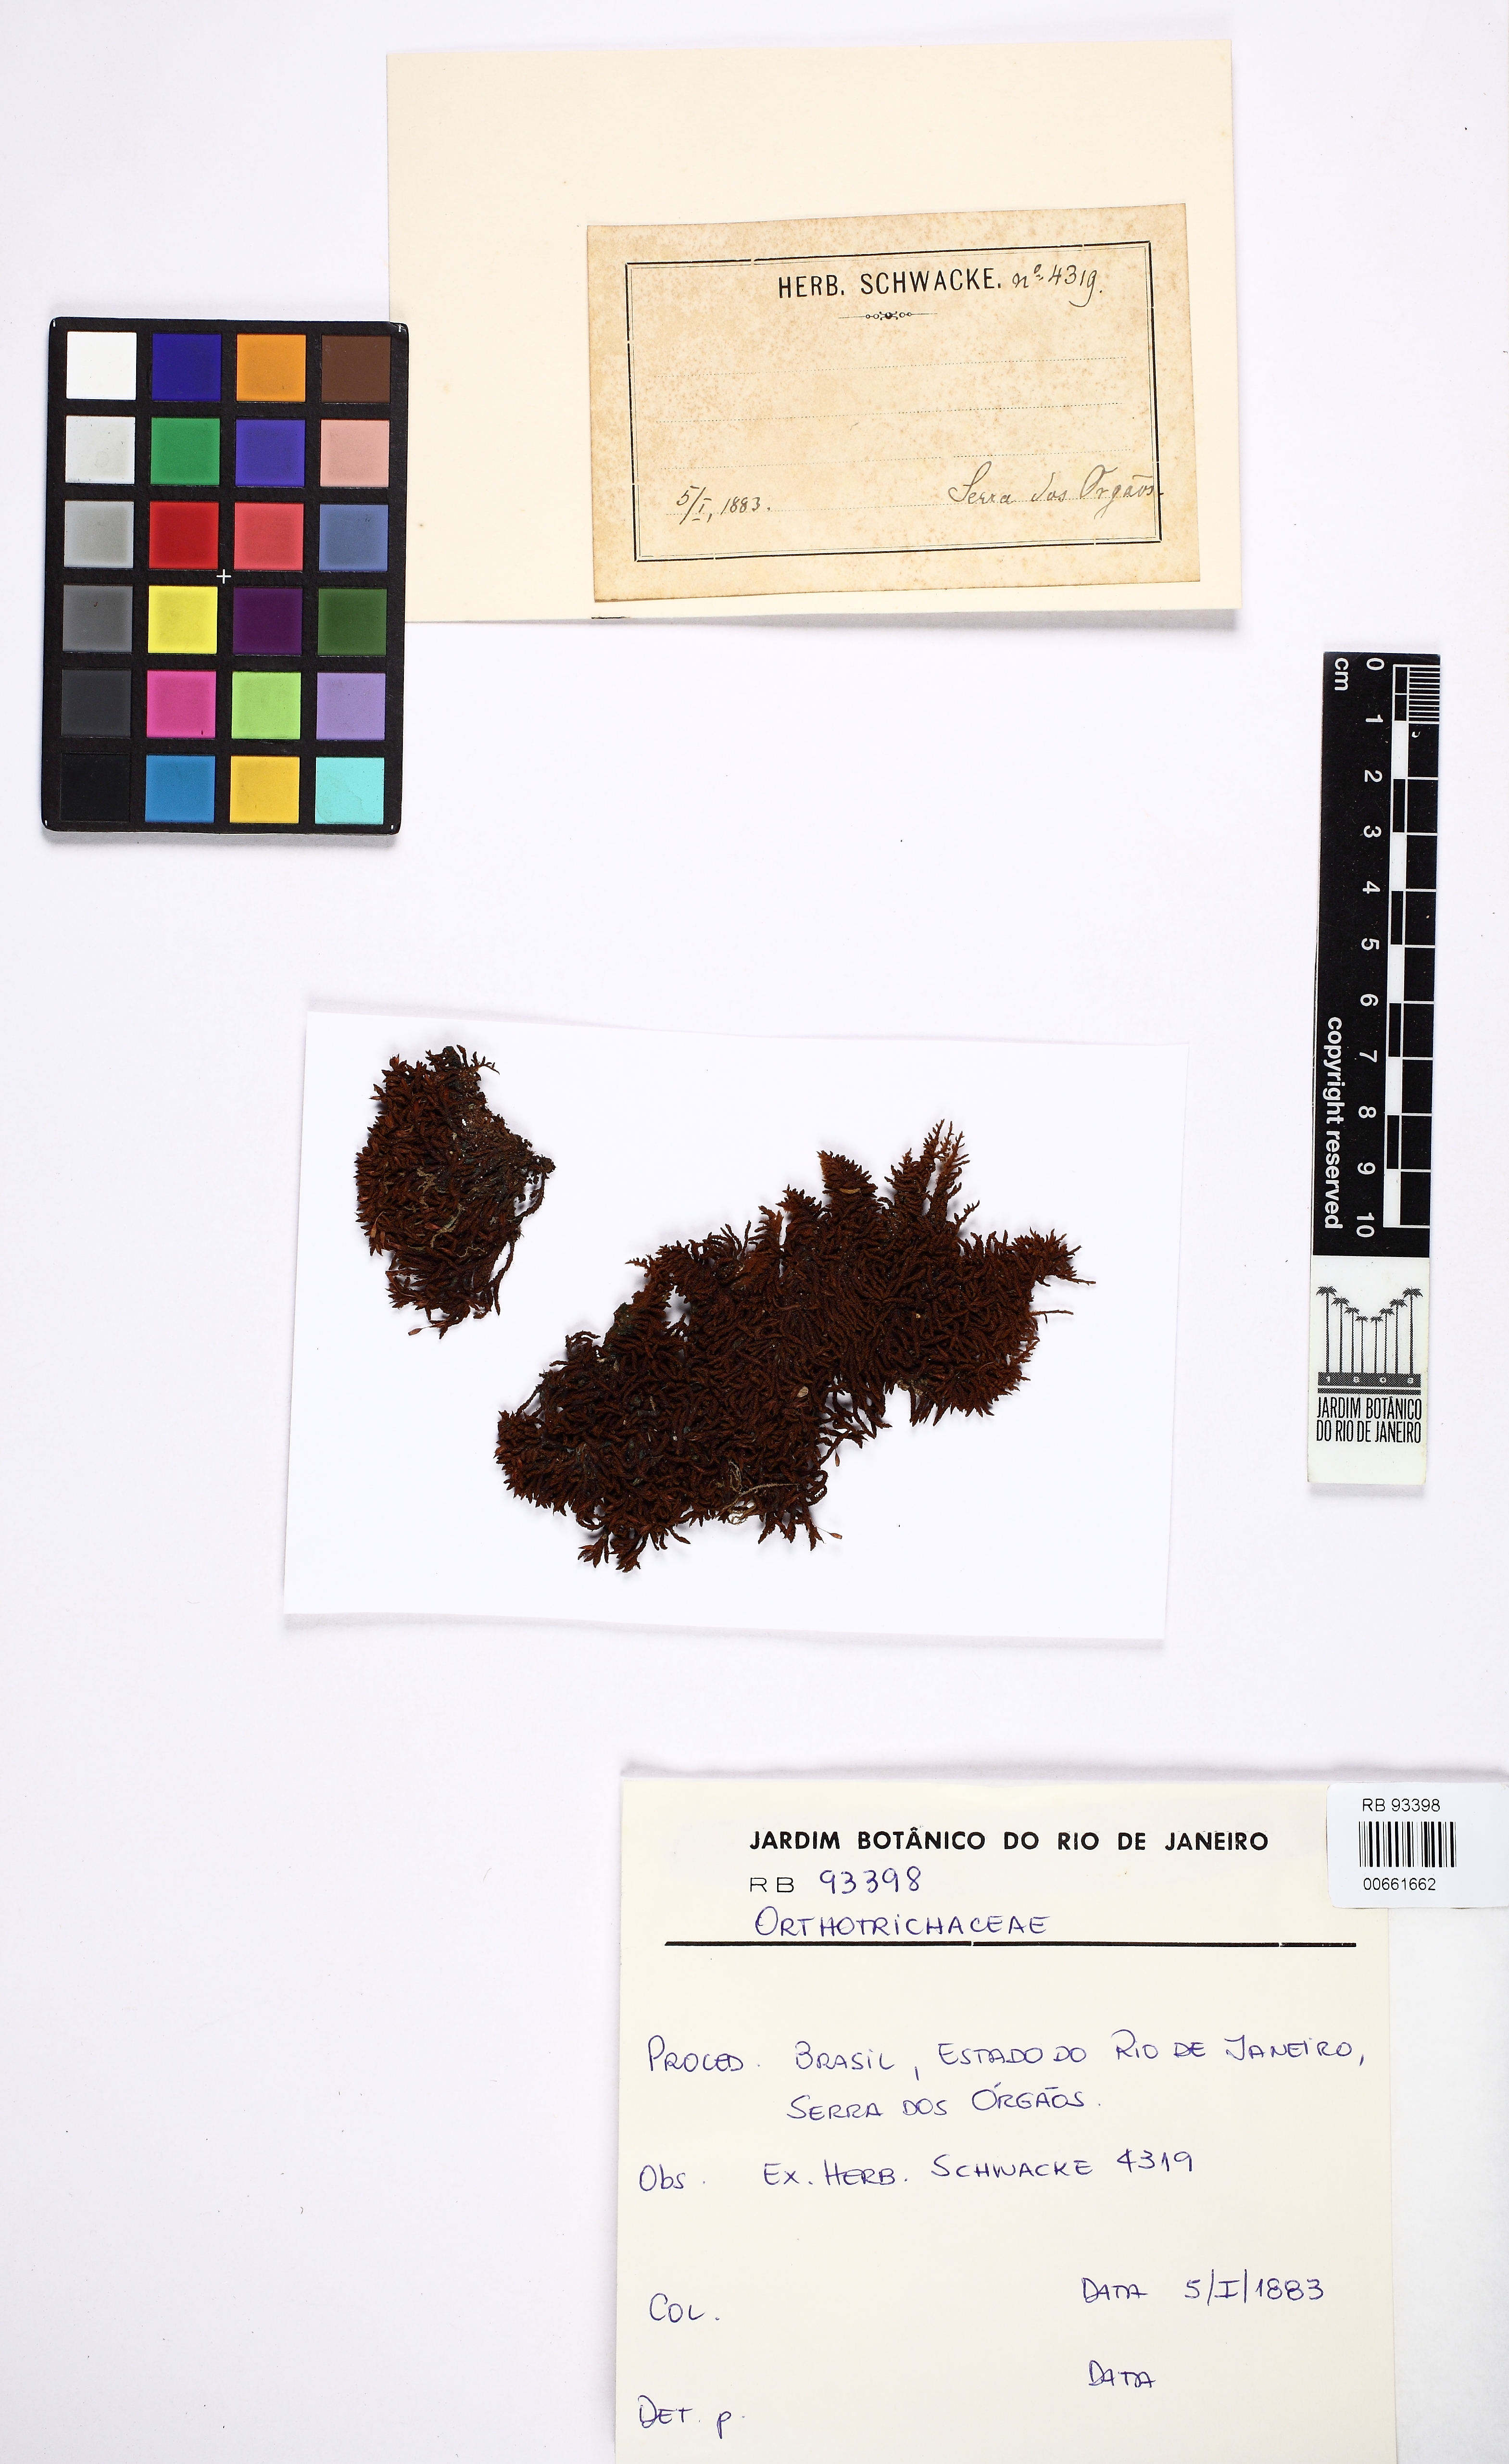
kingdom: Plantae
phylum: Bryophyta
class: Bryopsida
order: Orthotrichales
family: Orthotrichaceae
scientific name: Orthotrichaceae
